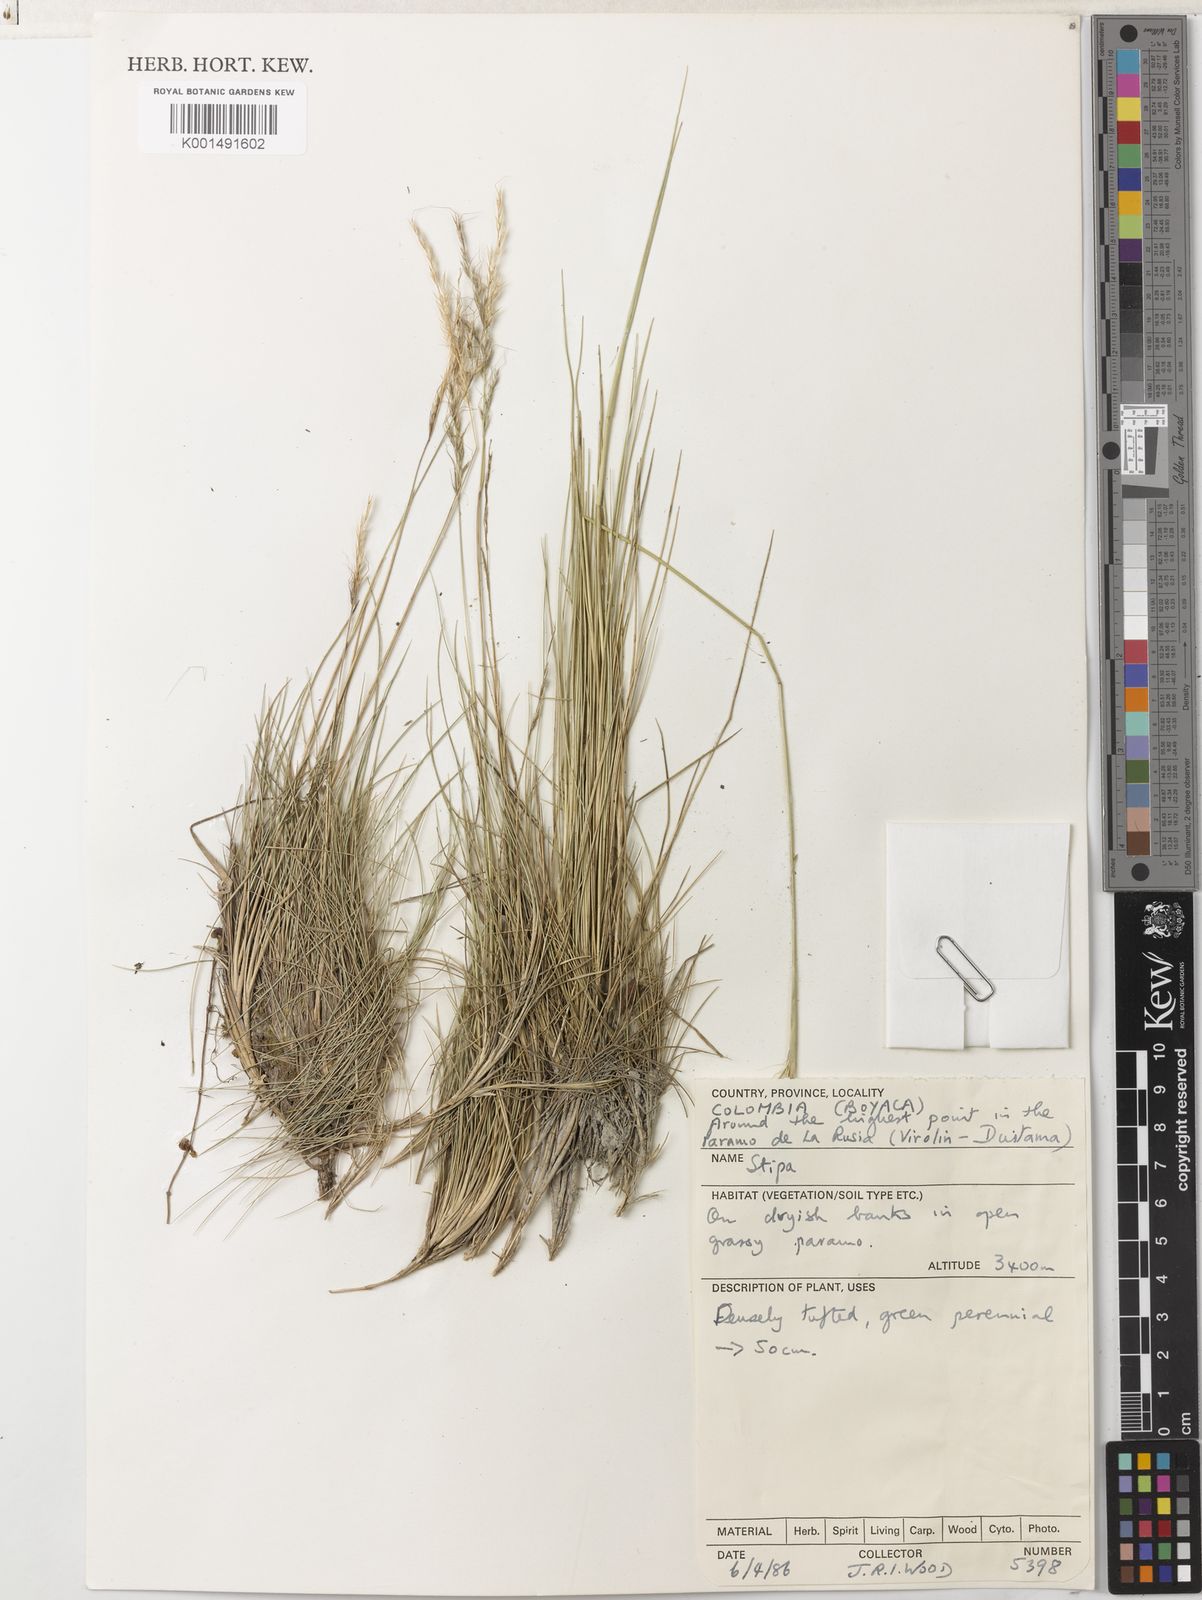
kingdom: Plantae
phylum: Tracheophyta
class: Liliopsida
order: Poales
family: Poaceae
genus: Nassella
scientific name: Nassella mexicana
